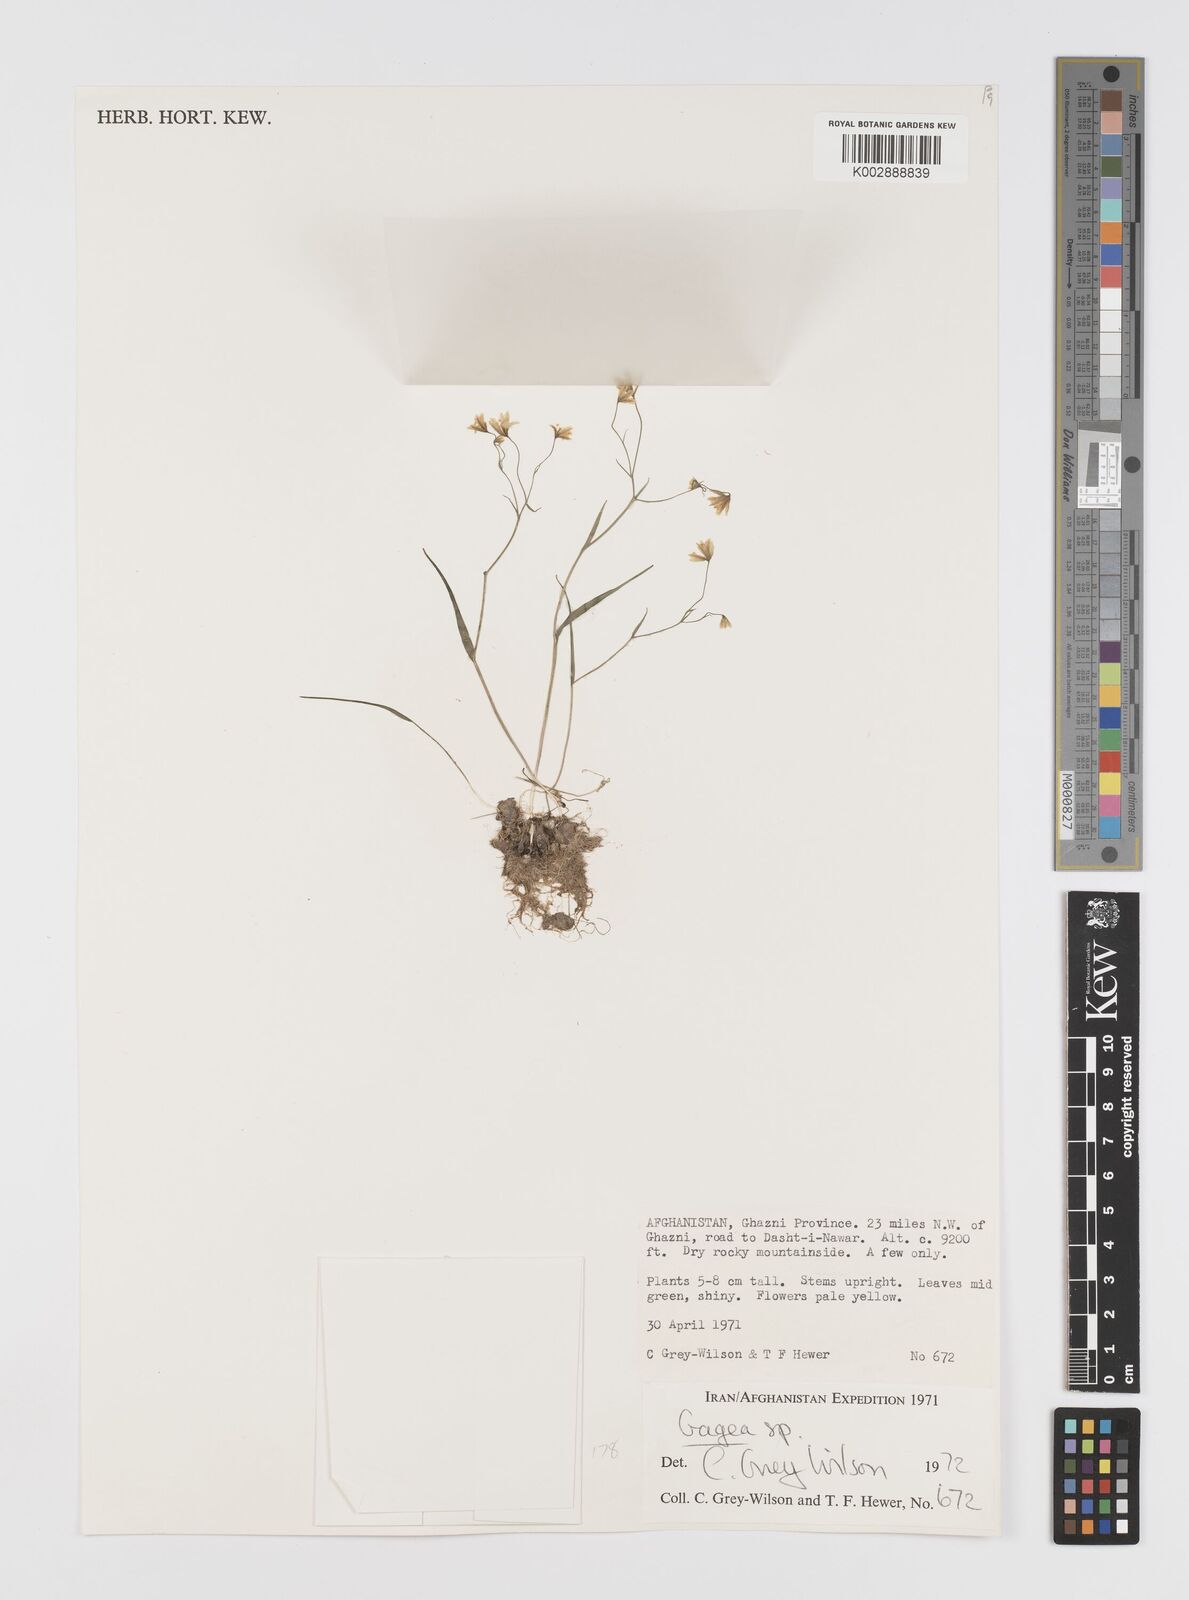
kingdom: Plantae
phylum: Tracheophyta
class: Liliopsida
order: Liliales
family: Liliaceae
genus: Gagea
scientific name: Gagea
